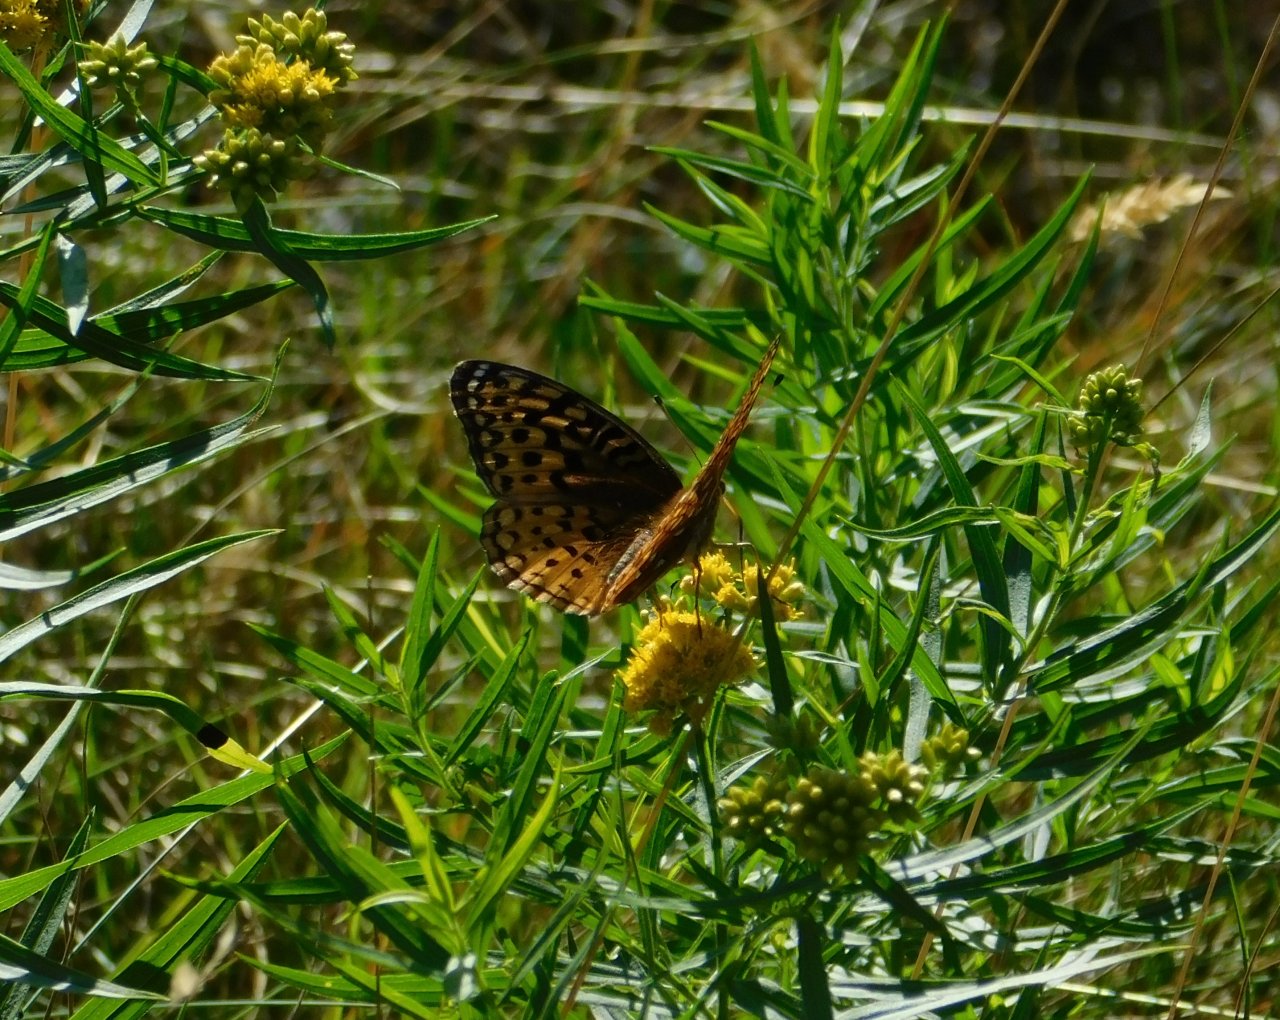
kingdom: Animalia
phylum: Arthropoda
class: Insecta
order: Lepidoptera
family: Nymphalidae
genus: Speyeria
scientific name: Speyeria cybele
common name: Great Spangled Fritillary
